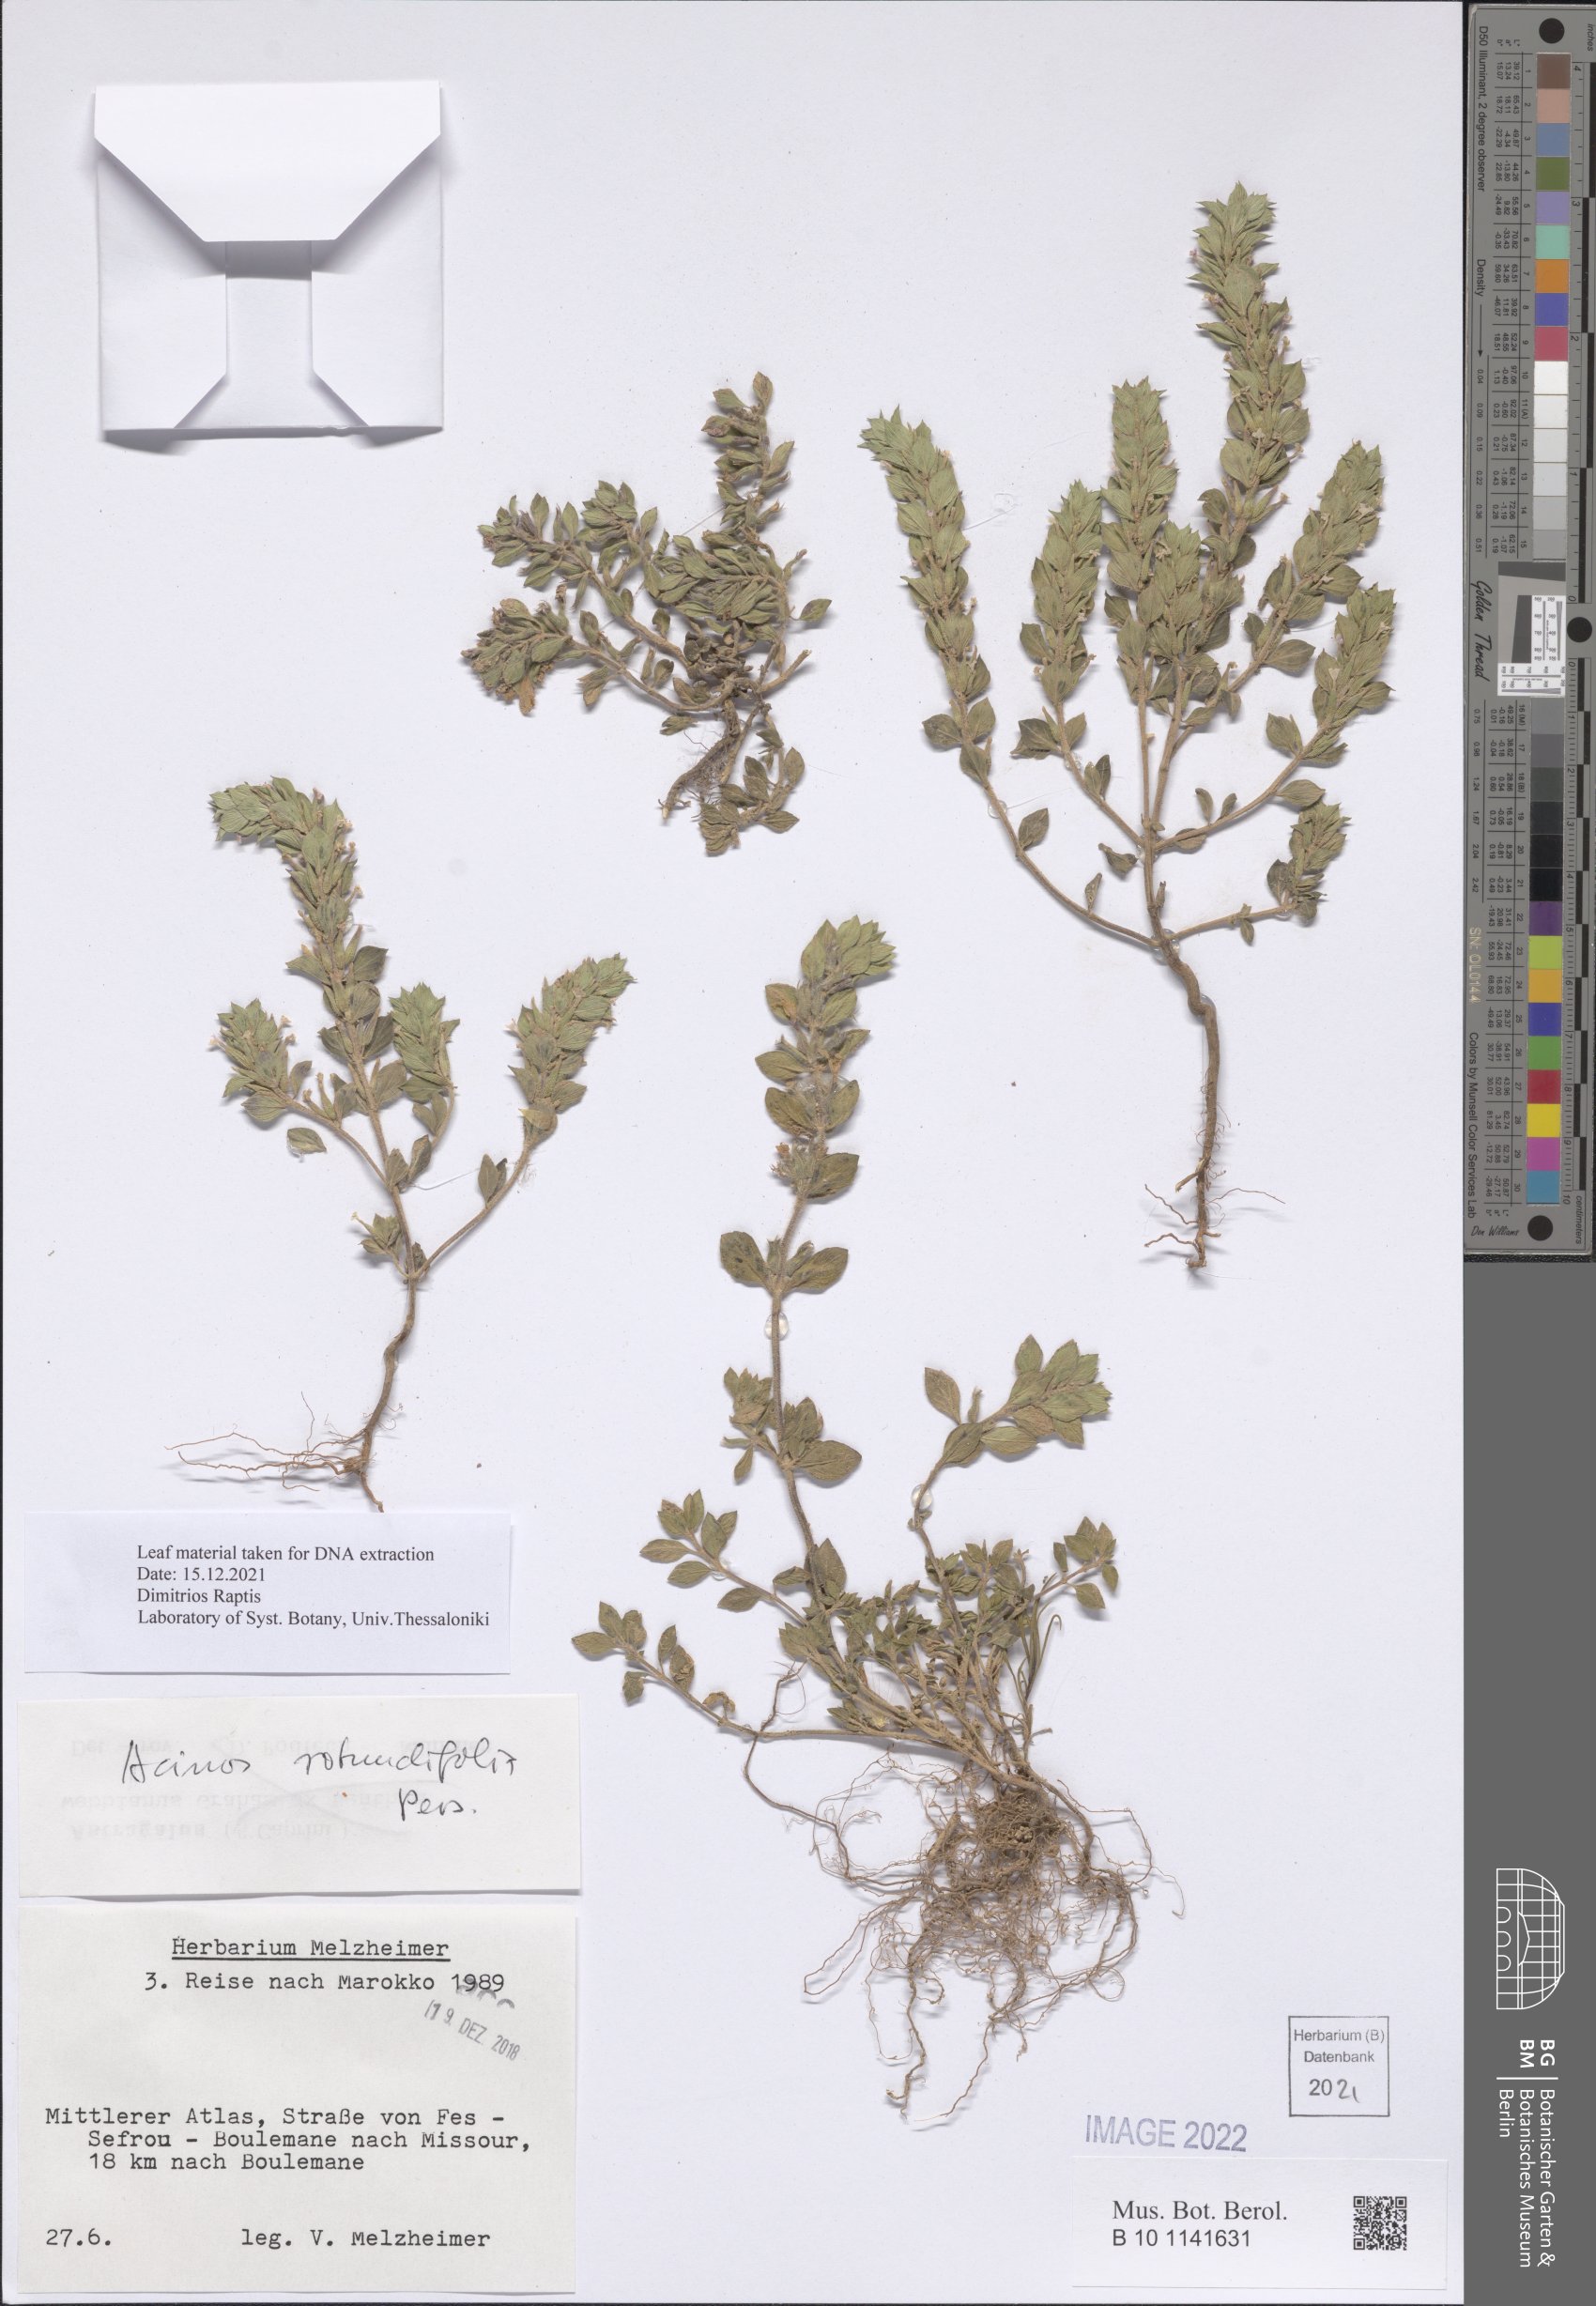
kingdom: Plantae
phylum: Tracheophyta
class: Magnoliopsida
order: Lamiales
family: Lamiaceae
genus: Clinopodium
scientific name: Clinopodium graveolens
